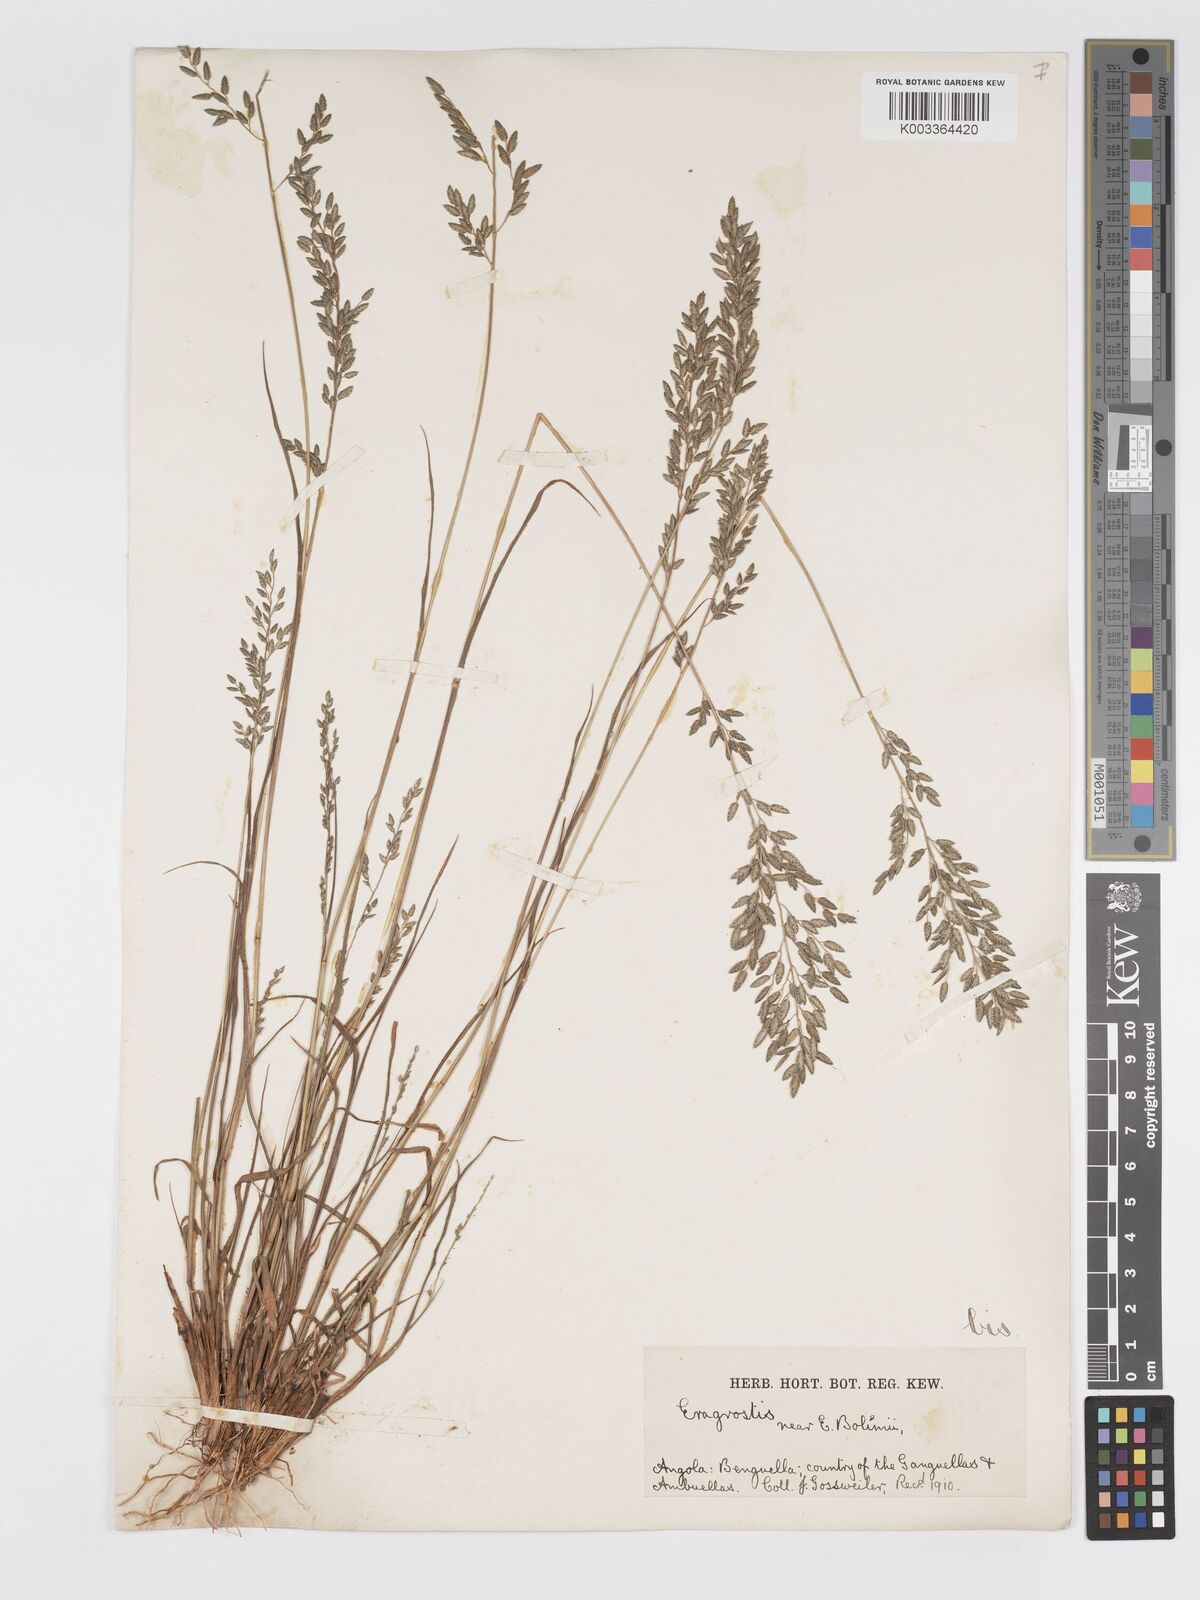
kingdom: Plantae
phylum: Tracheophyta
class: Liliopsida
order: Poales
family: Poaceae
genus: Eragrostis
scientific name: Eragrostis racemosa
